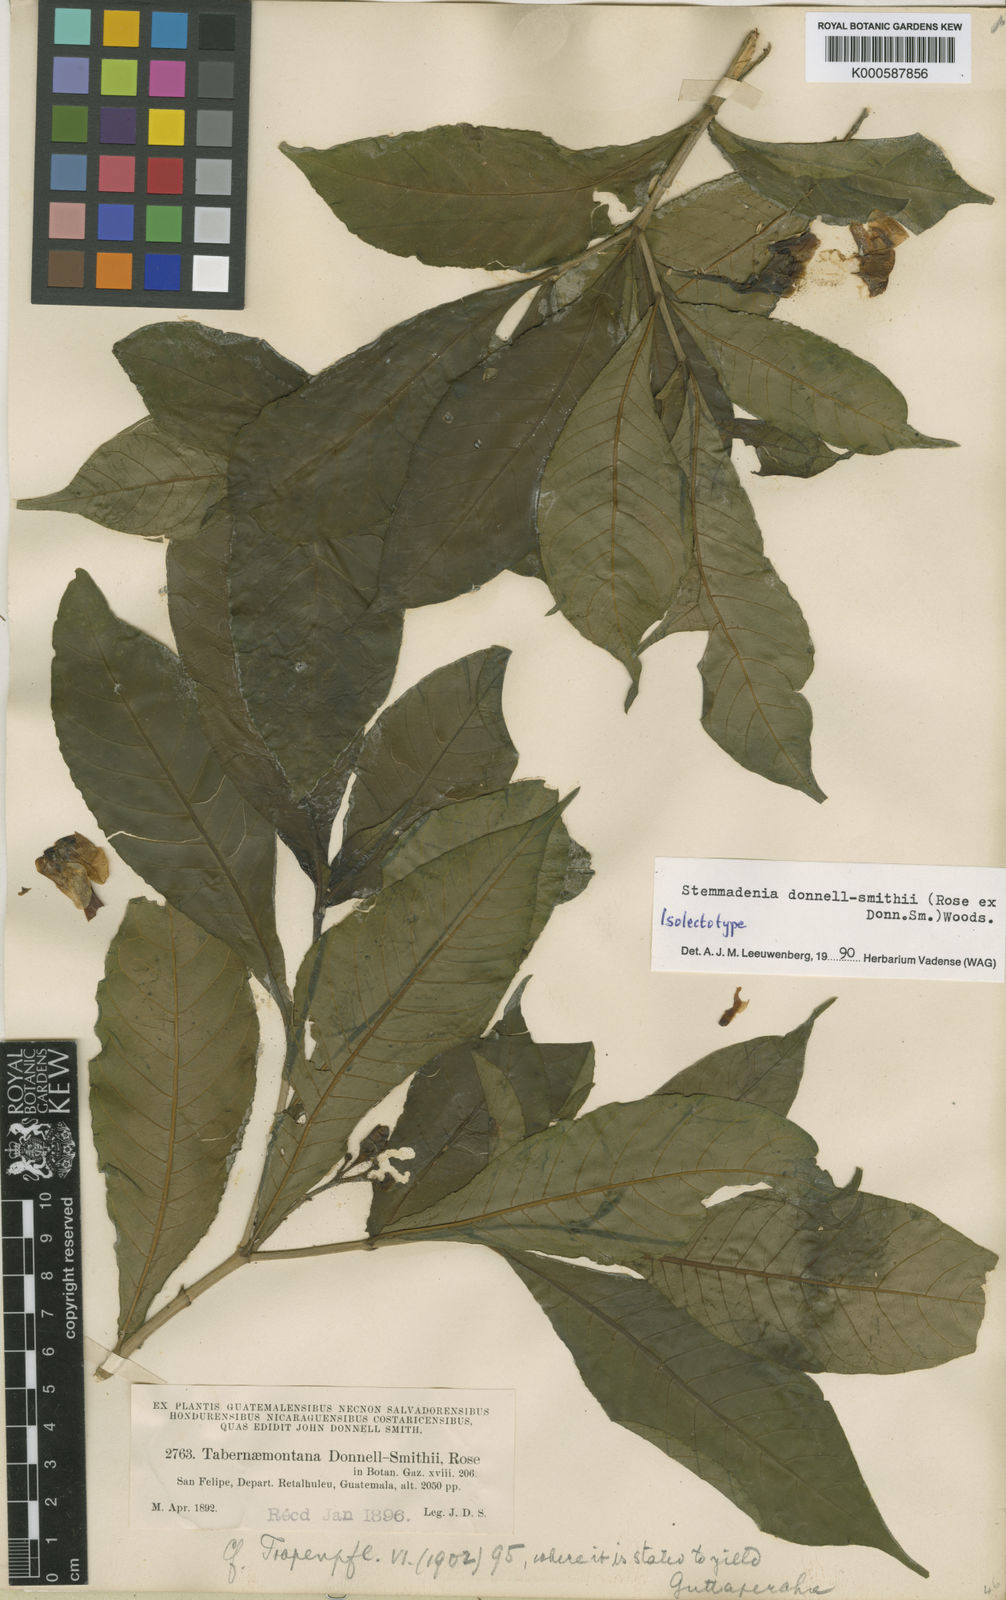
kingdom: Plantae
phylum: Tracheophyta
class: Magnoliopsida
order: Gentianales
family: Apocynaceae
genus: Tabernaemontana
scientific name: Tabernaemontana donnell-smithii
